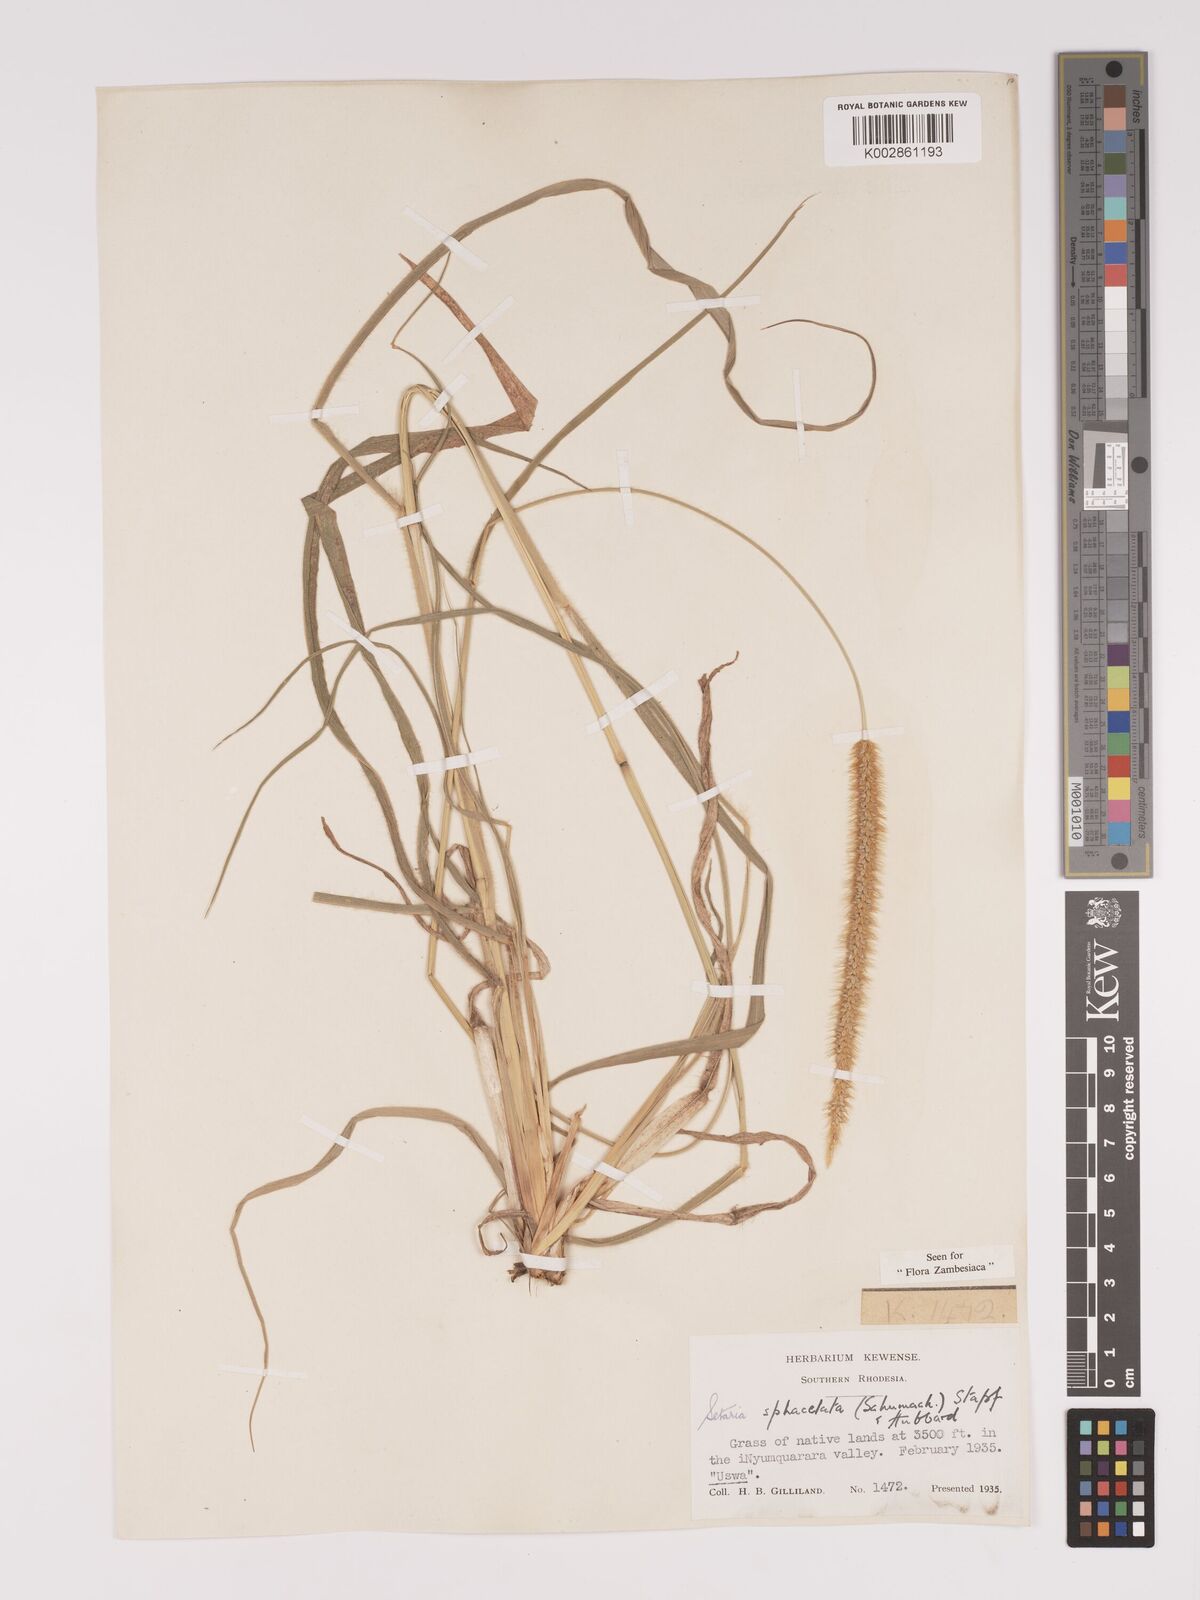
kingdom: Plantae
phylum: Tracheophyta
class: Liliopsida
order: Poales
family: Poaceae
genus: Setaria
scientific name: Setaria sphacelata
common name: African bristlegrass
